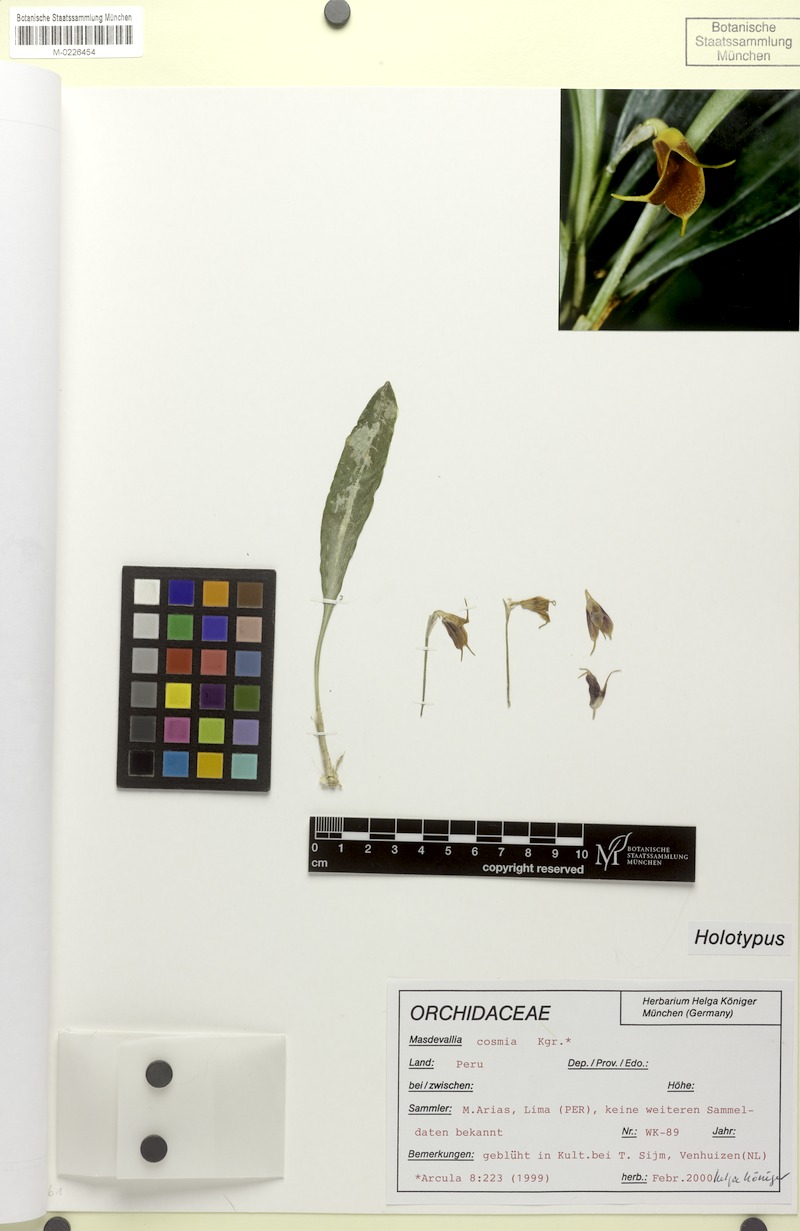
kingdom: Plantae
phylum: Tracheophyta
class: Liliopsida
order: Asparagales
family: Orchidaceae
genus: Masdevallia
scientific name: Masdevallia cosmia
